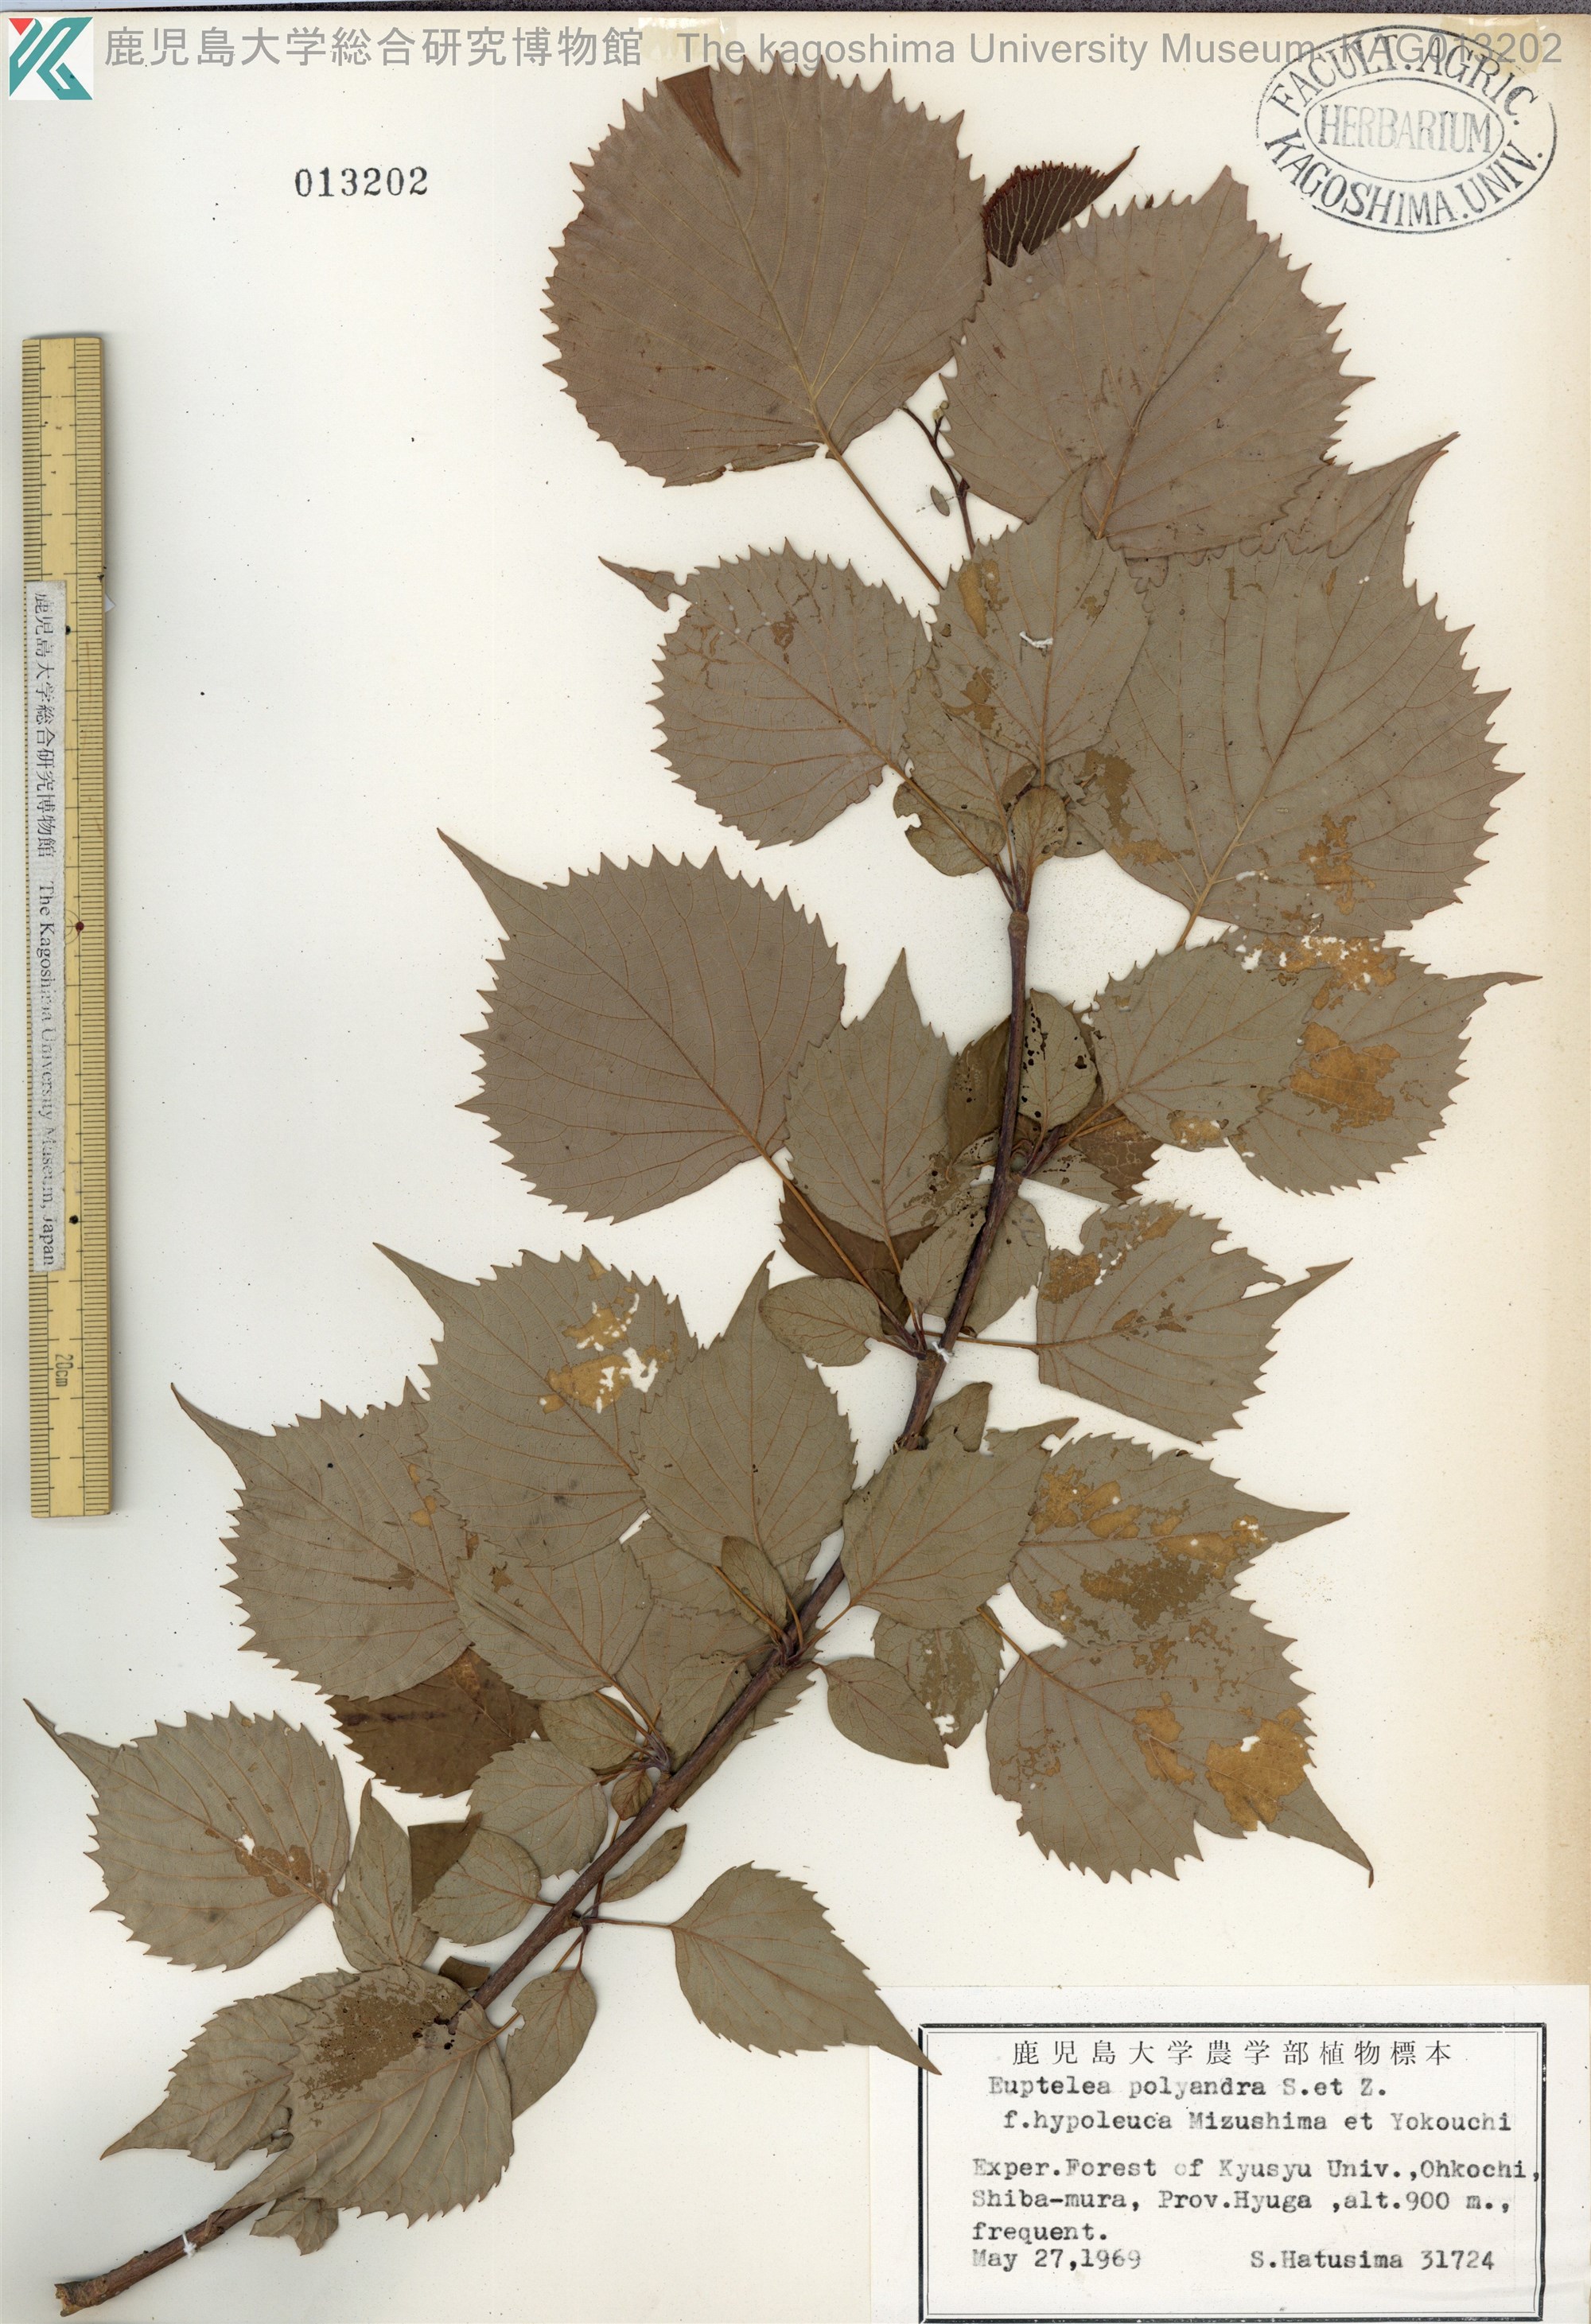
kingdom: Plantae
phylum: Tracheophyta
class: Magnoliopsida
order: Ranunculales
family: Eupteleaceae
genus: Euptelea
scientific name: Euptelea polyandra
